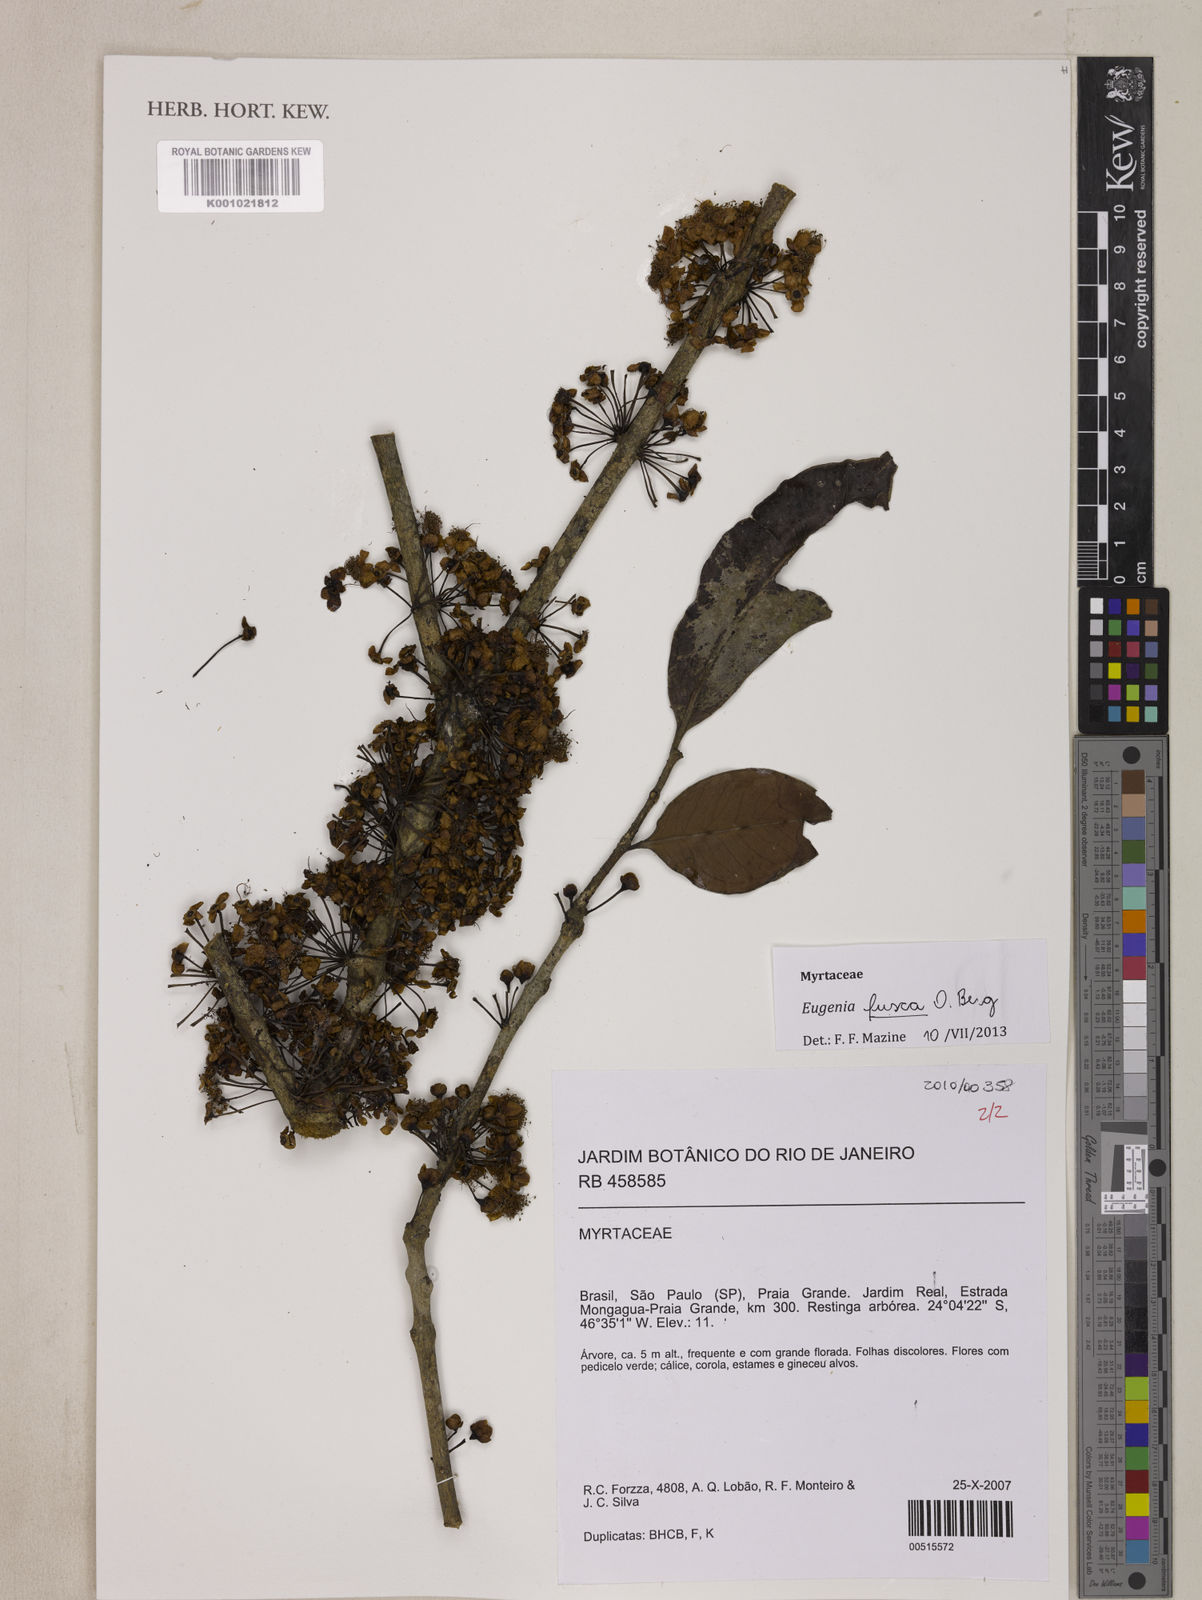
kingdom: Plantae
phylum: Tracheophyta
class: Magnoliopsida
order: Myrtales
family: Myrtaceae
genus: Eugenia
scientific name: Eugenia fusca
